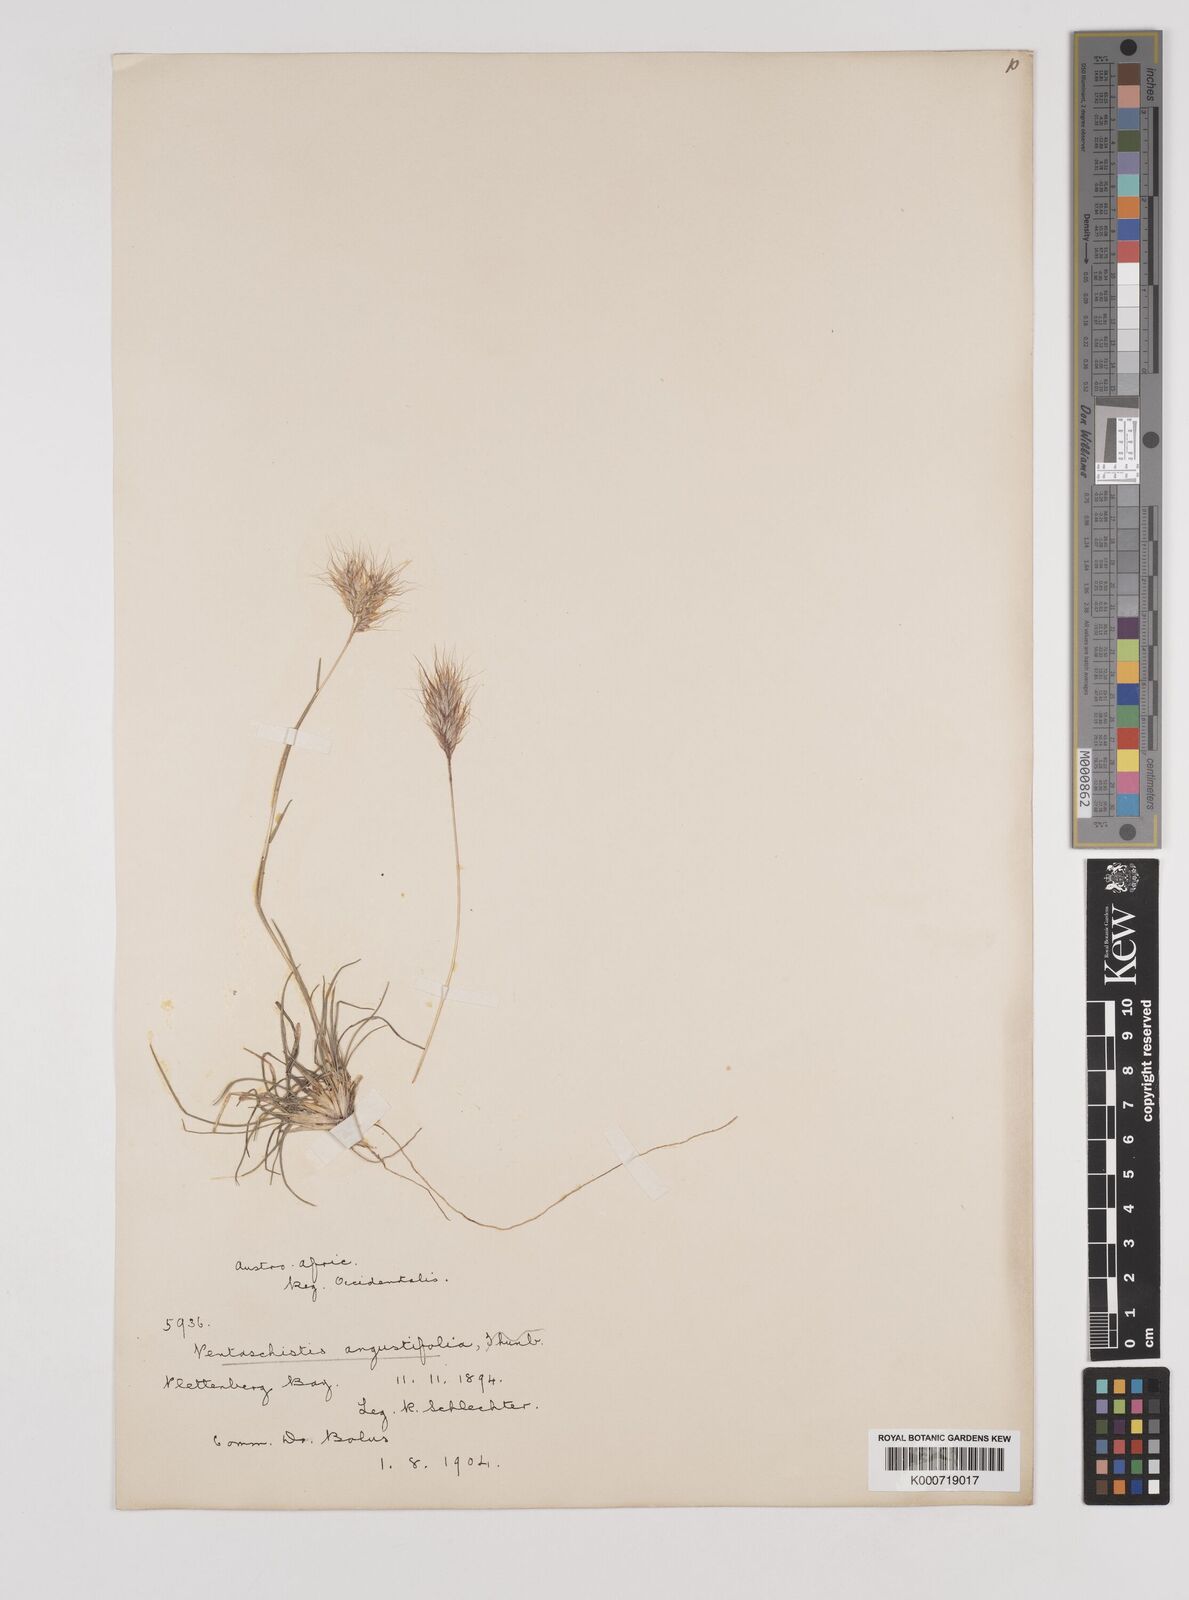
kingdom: Plantae
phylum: Tracheophyta
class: Liliopsida
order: Poales
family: Poaceae
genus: Pentameris
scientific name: Pentameris pallida
